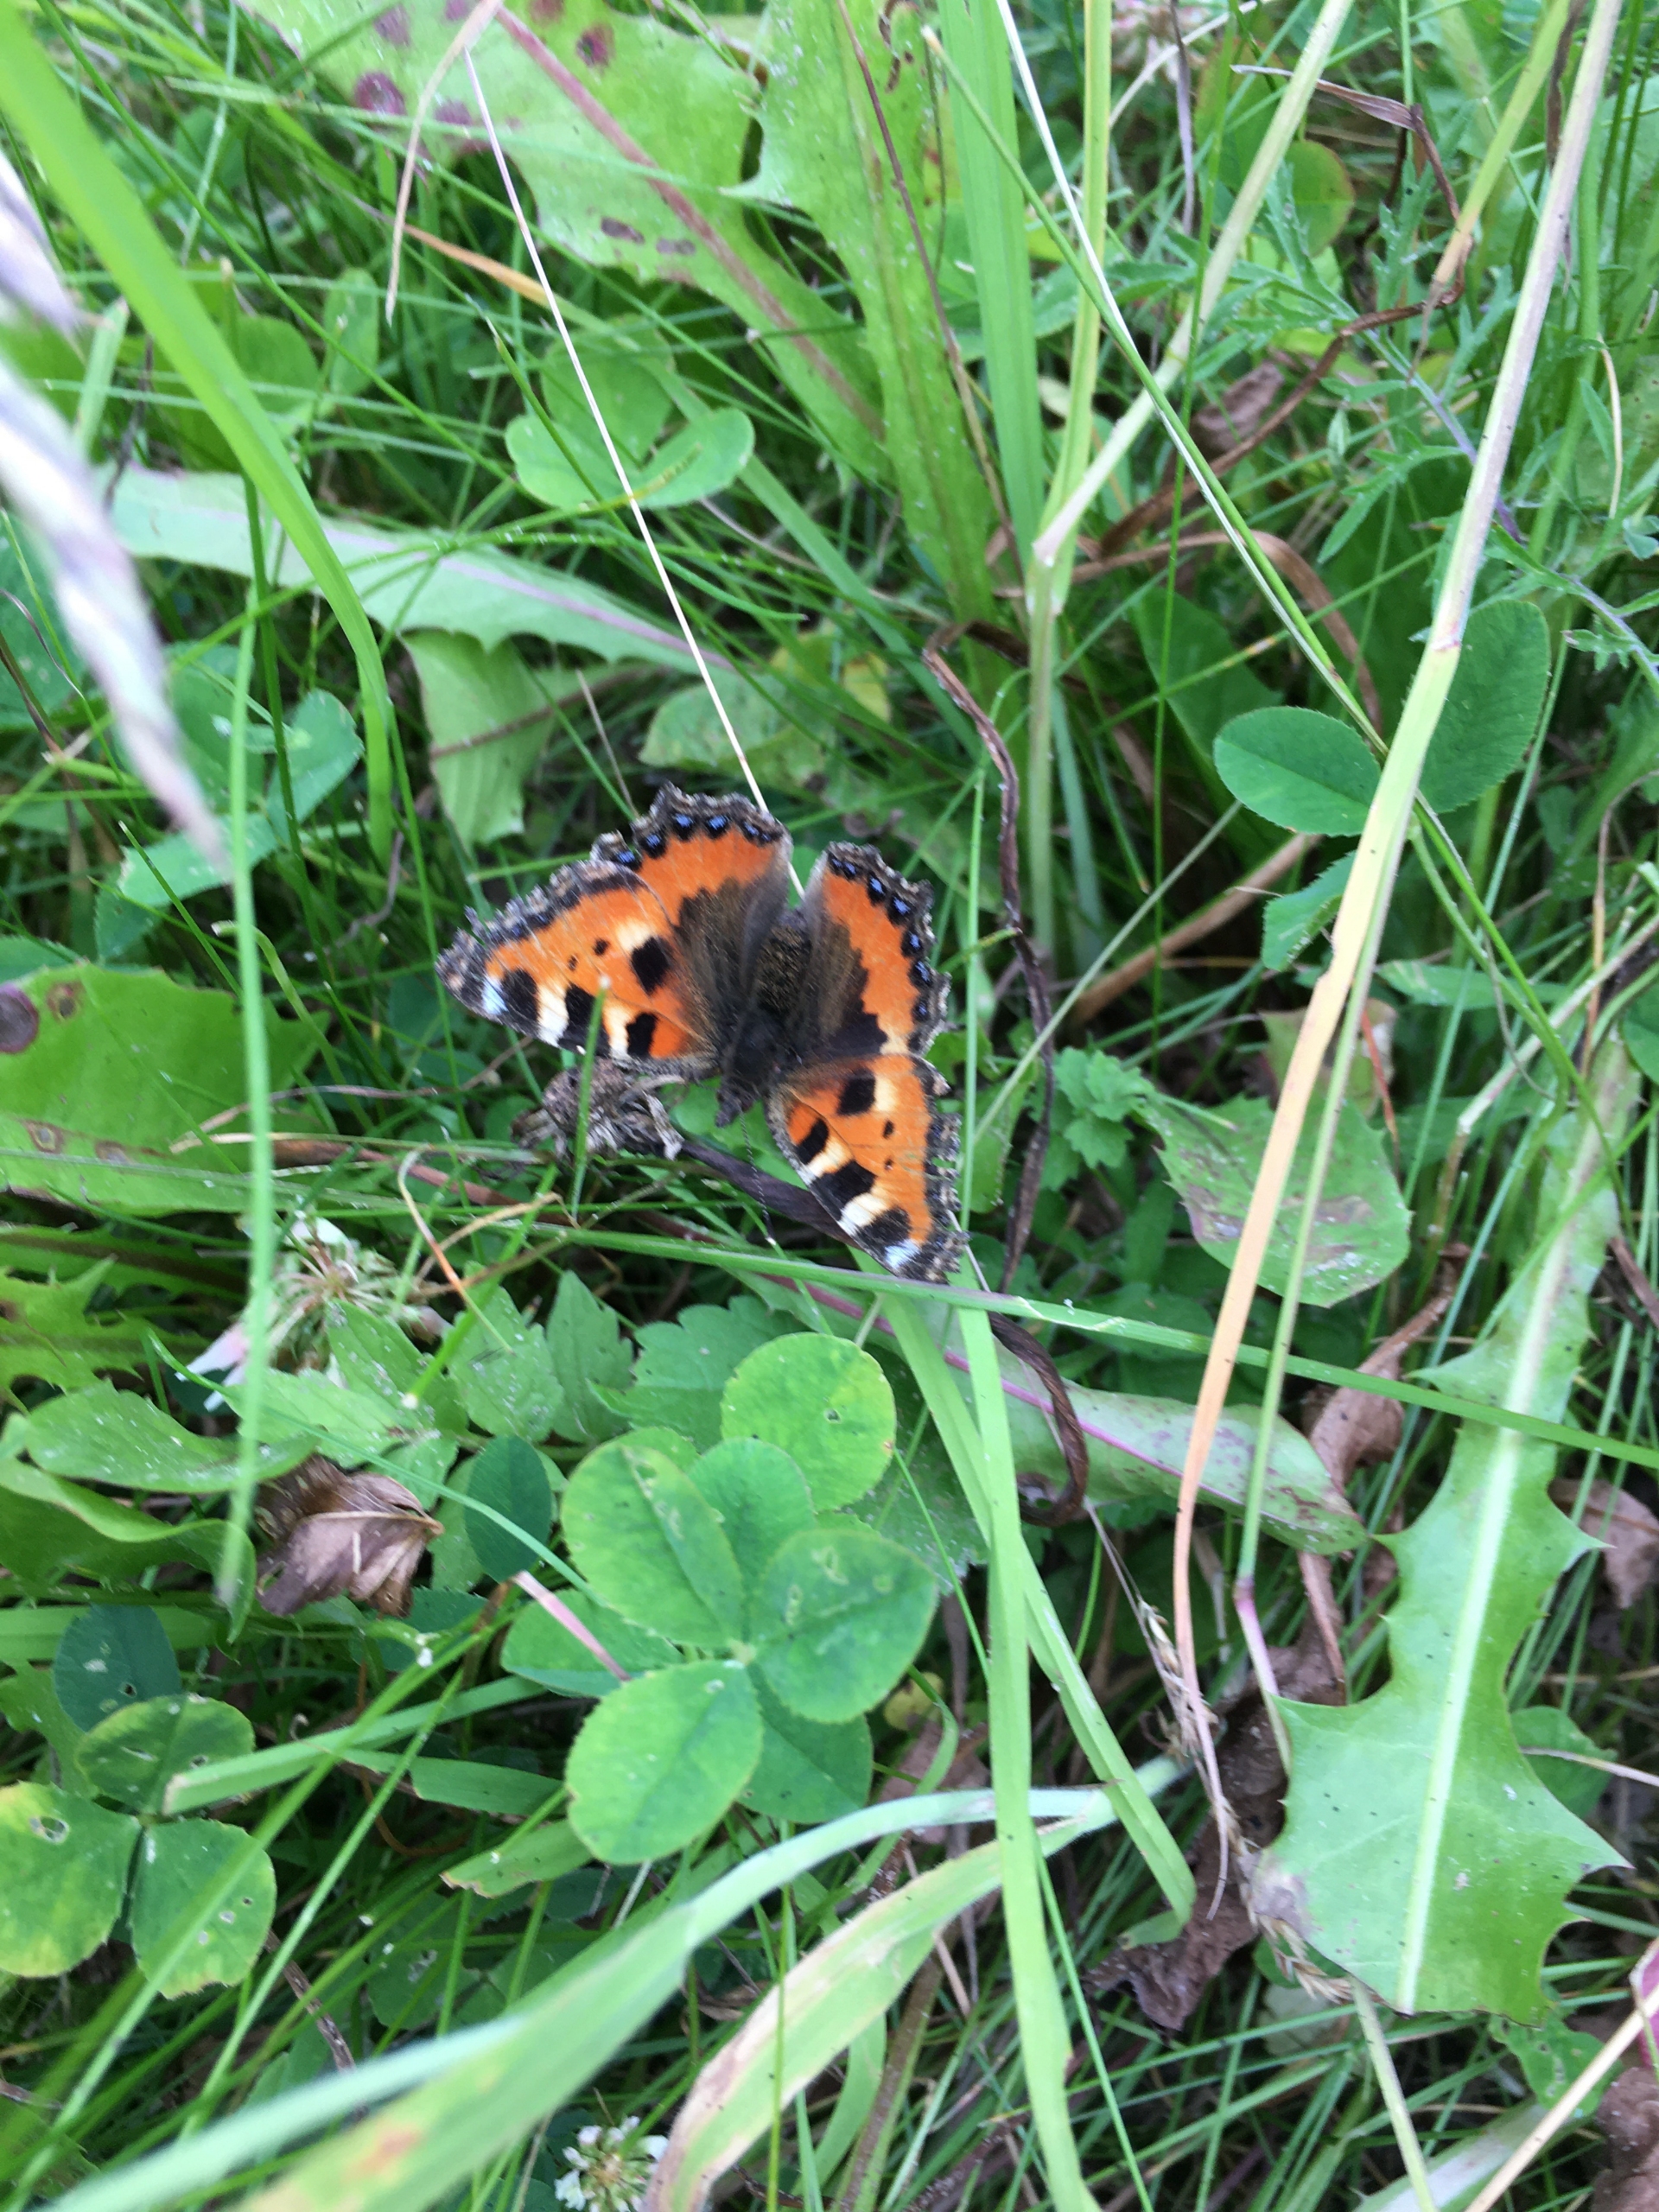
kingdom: Animalia
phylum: Arthropoda
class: Insecta
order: Lepidoptera
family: Nymphalidae
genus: Aglais
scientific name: Aglais urticae
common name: Nældens takvinge
